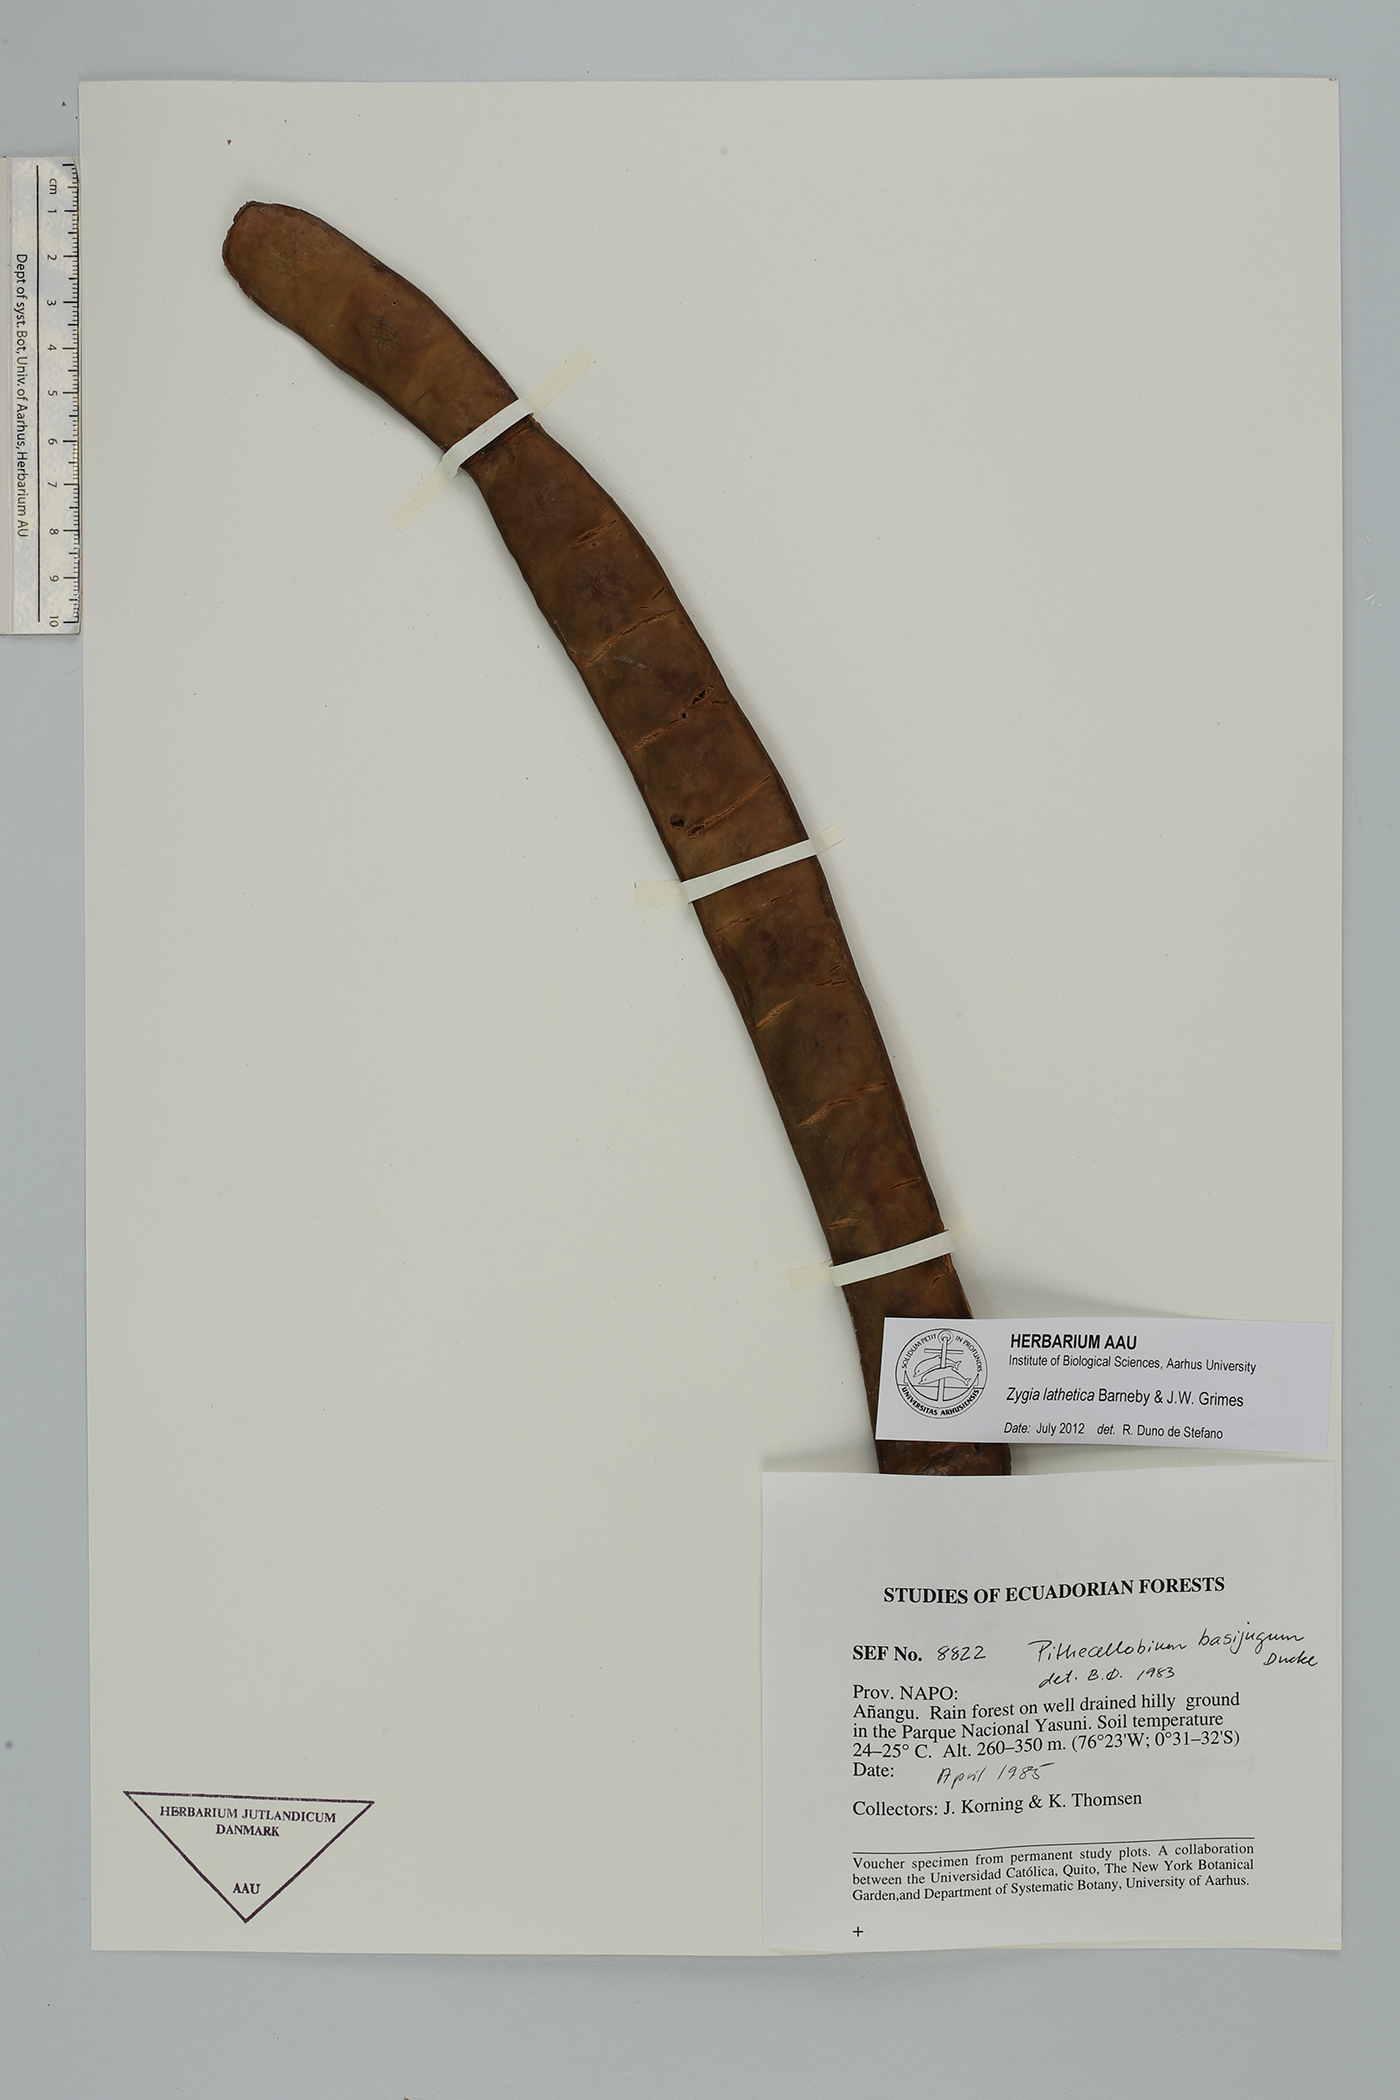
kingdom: Plantae
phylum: Tracheophyta
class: Magnoliopsida
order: Fabales
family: Fabaceae
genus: Zygia
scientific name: Zygia lathetica
